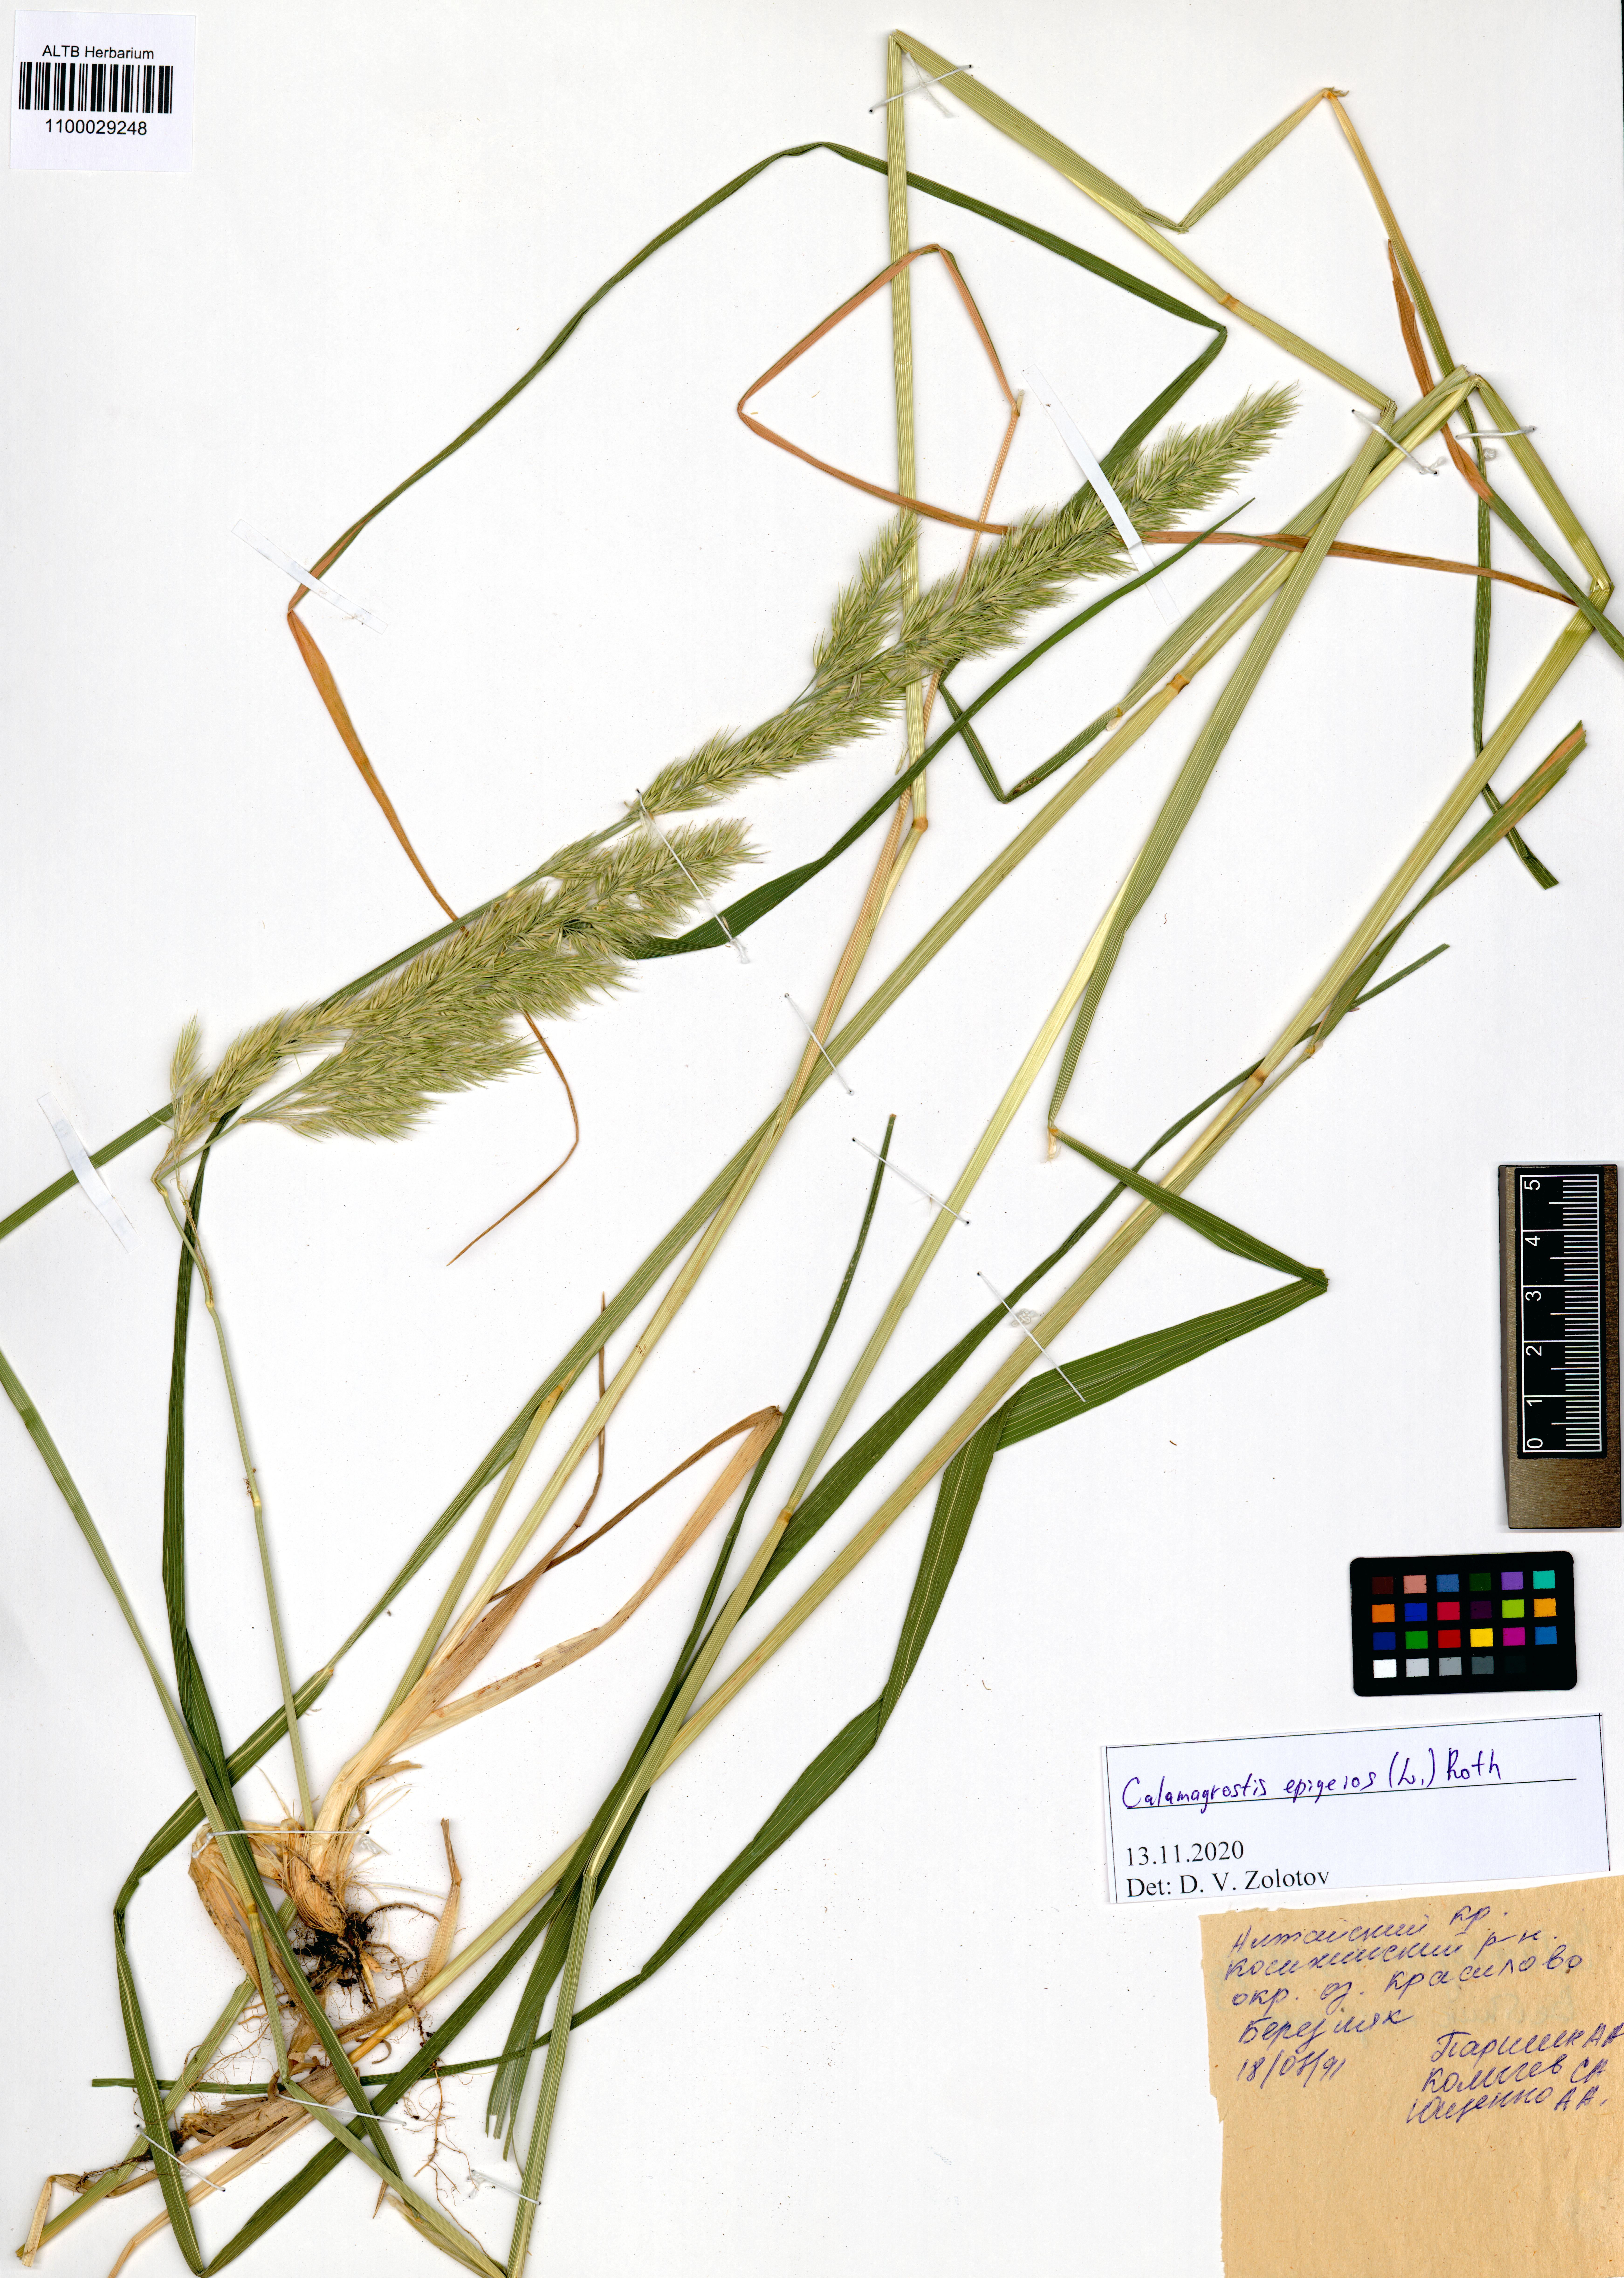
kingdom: Plantae
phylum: Tracheophyta
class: Liliopsida
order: Poales
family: Poaceae
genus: Calamagrostis
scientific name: Calamagrostis epigejos
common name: Wood small-reed
